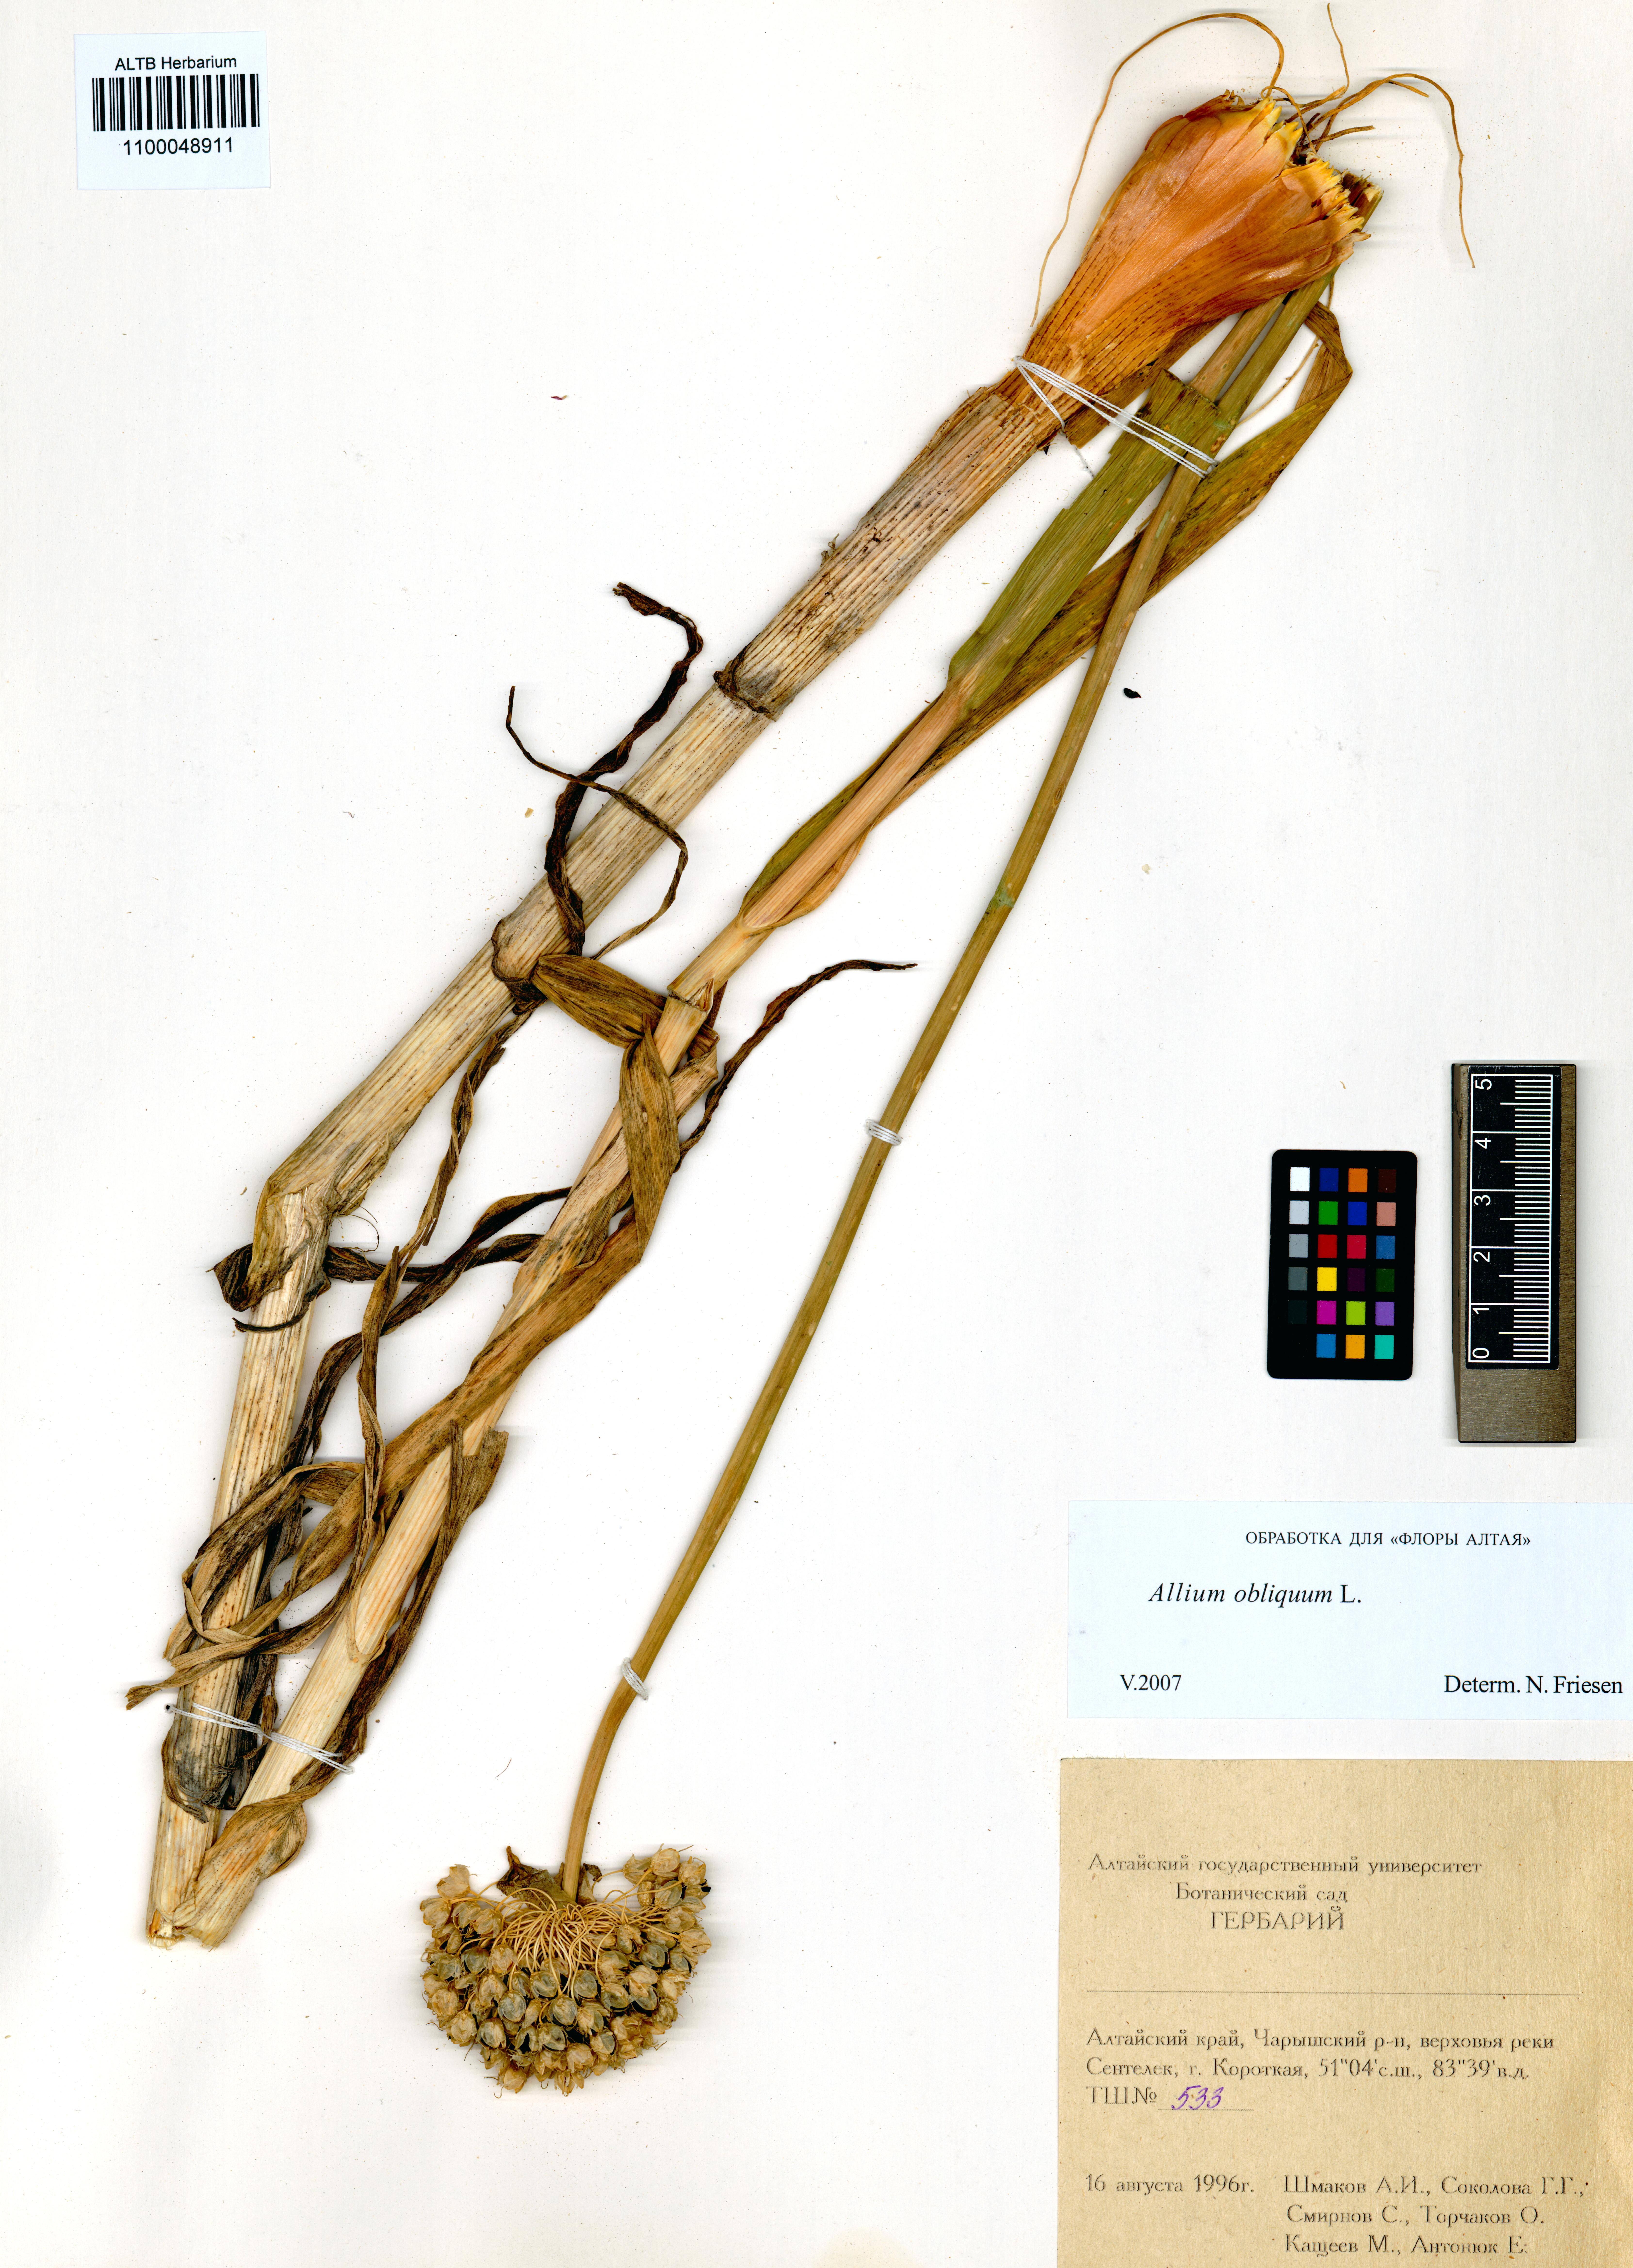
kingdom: Plantae
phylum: Tracheophyta
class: Liliopsida
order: Asparagales
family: Amaryllidaceae
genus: Allium
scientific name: Allium obliquum
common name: Oblique onion
